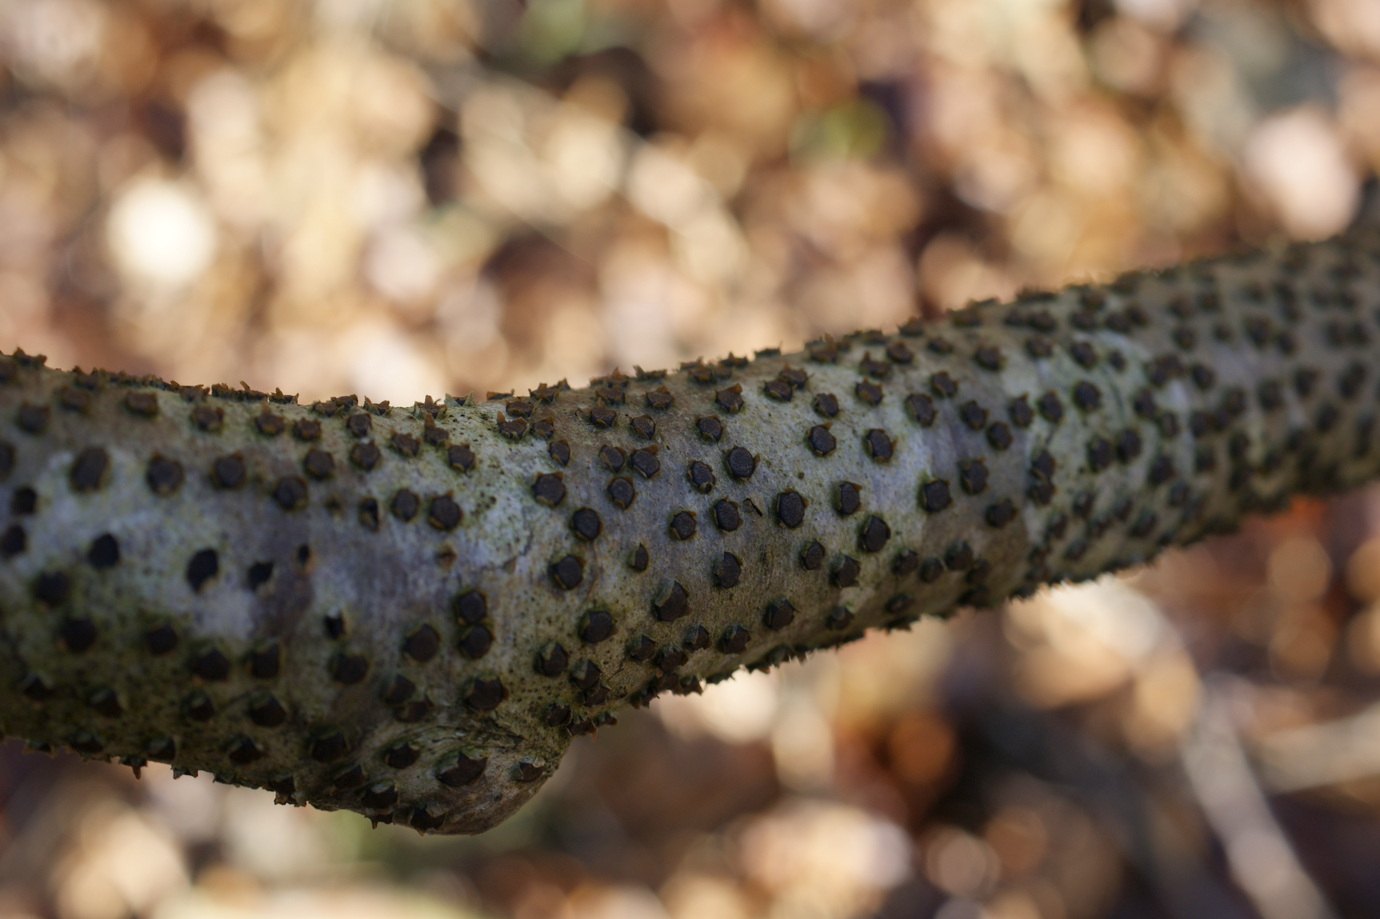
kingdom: Fungi
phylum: Ascomycota
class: Sordariomycetes
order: Xylariales
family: Diatrypaceae
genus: Diatrype
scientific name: Diatrype disciformis
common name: kant-kulskorpe
